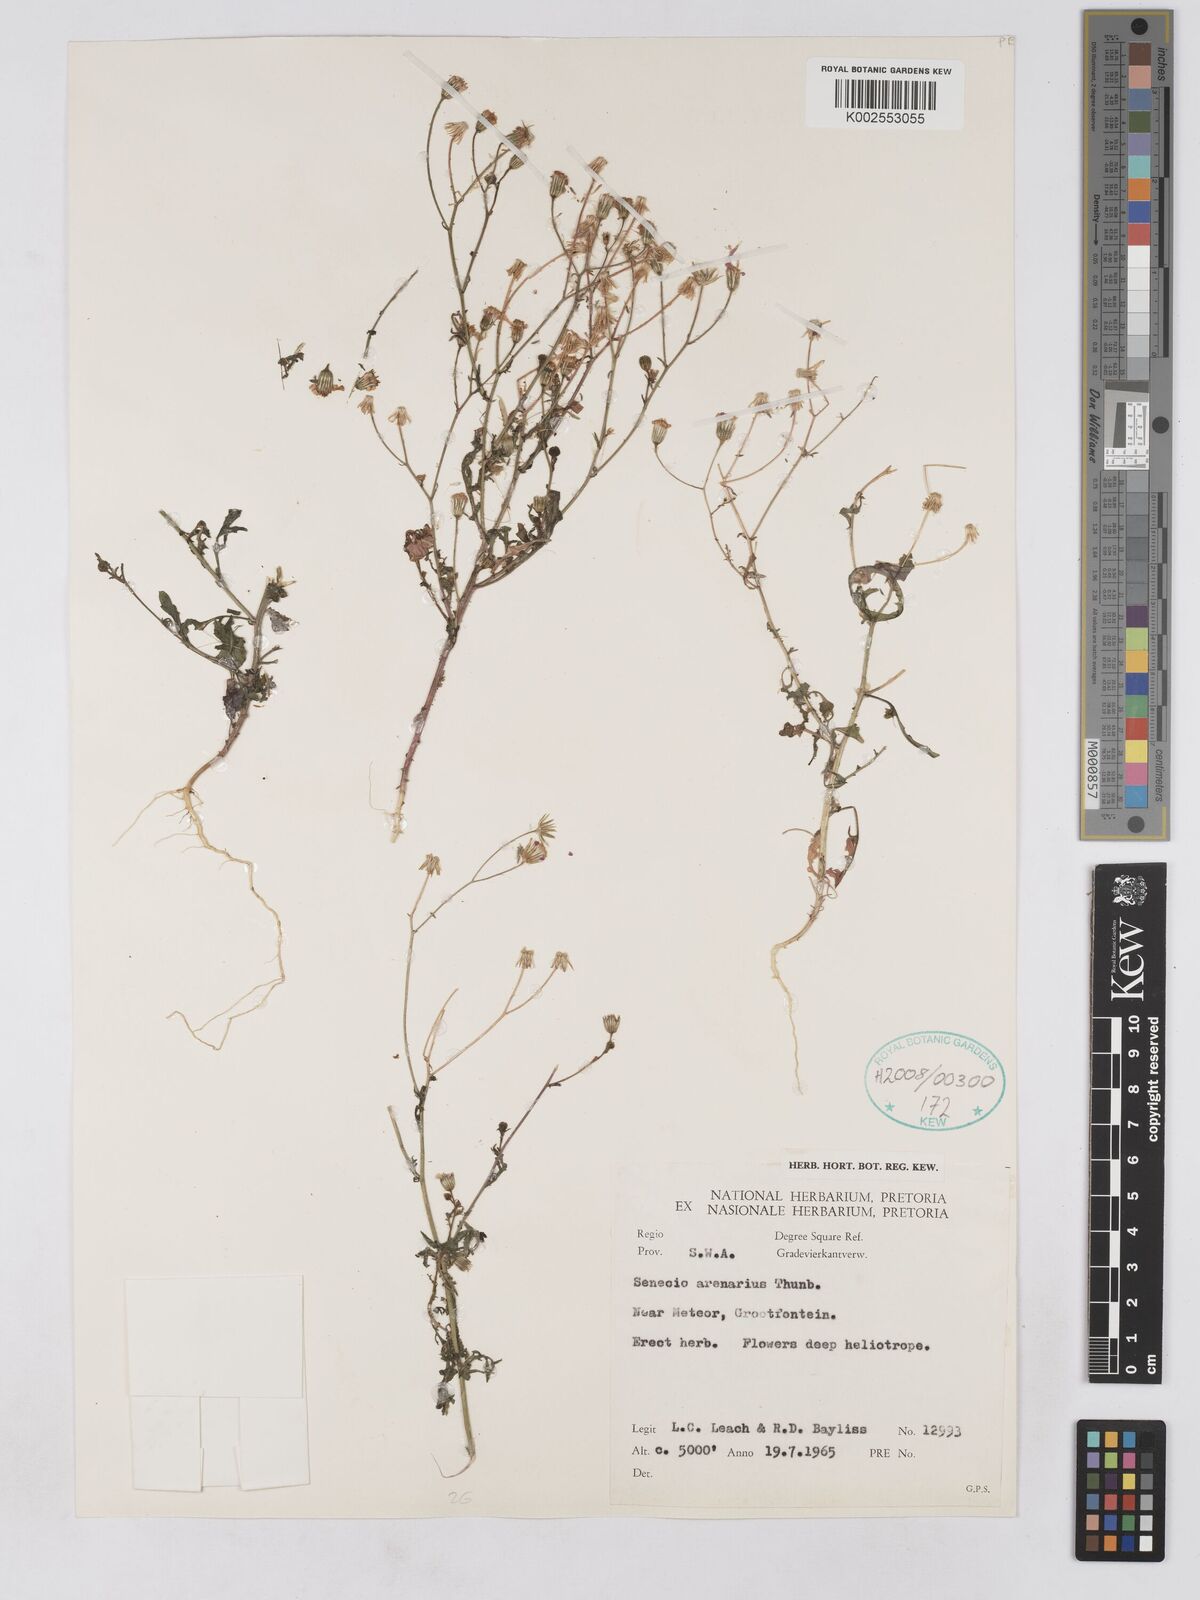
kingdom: Plantae
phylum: Tracheophyta
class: Magnoliopsida
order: Asterales
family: Asteraceae
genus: Senecio
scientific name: Senecio arenarius
